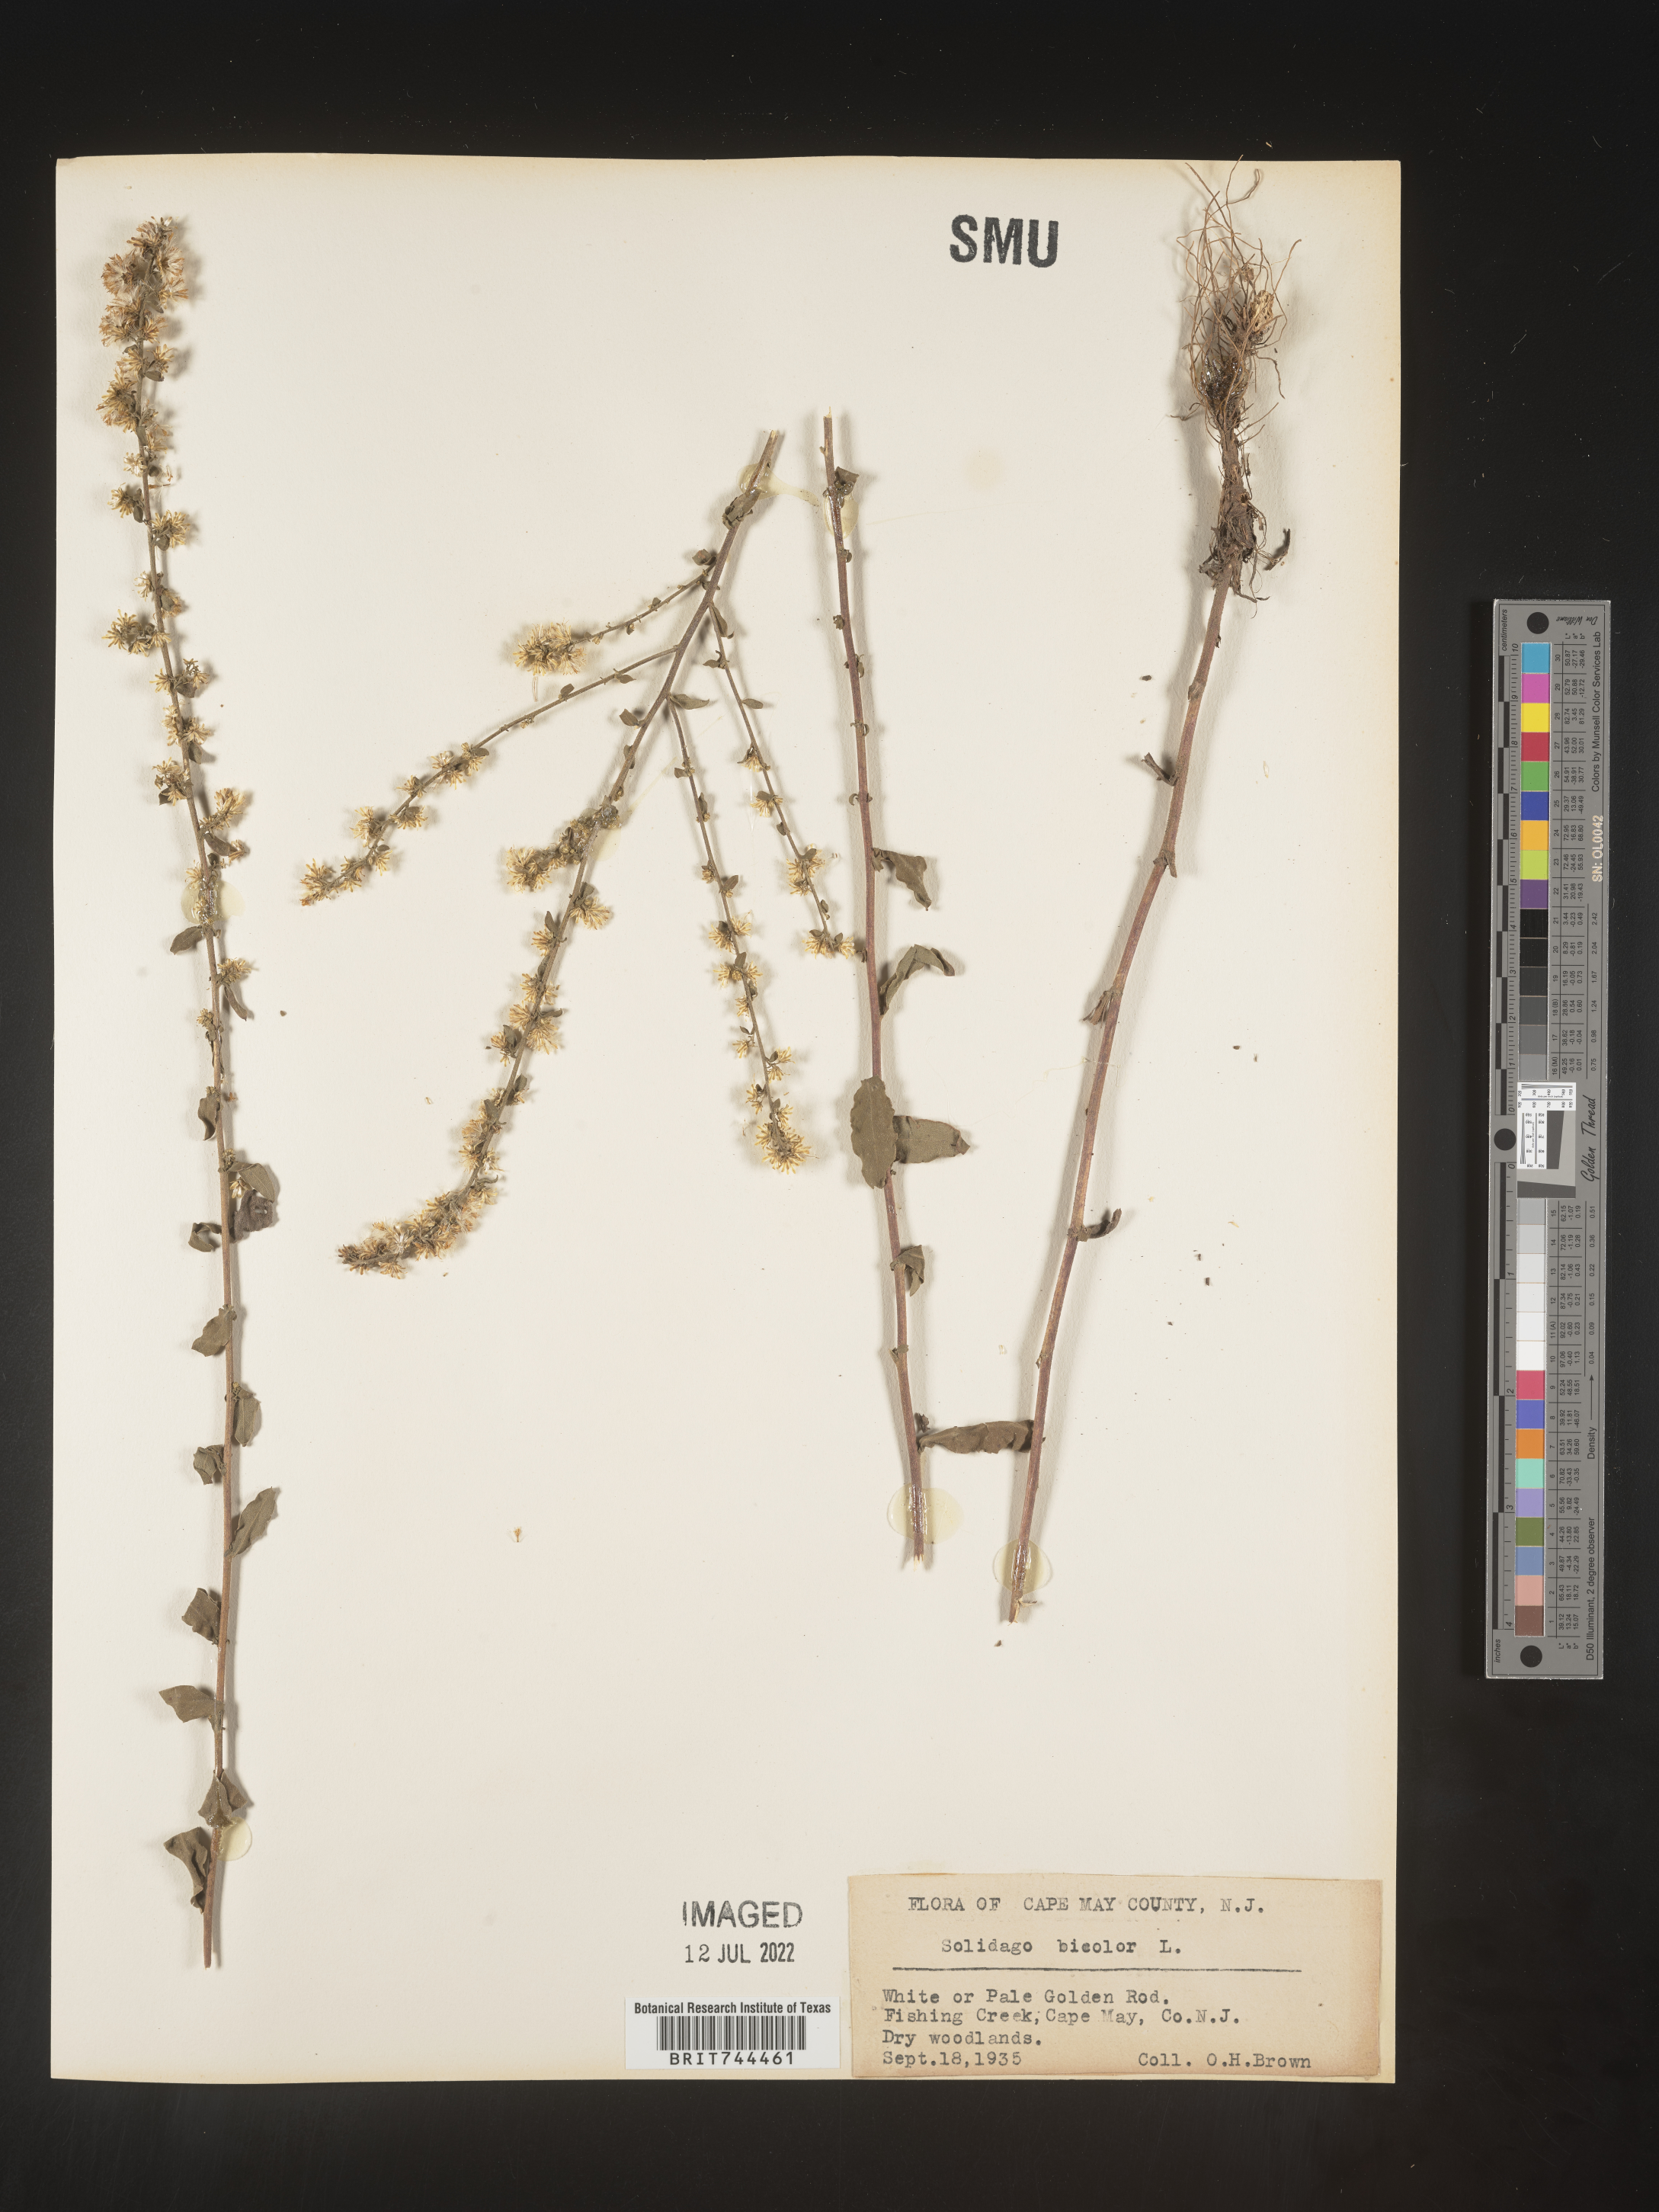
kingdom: Plantae
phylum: Tracheophyta
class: Magnoliopsida
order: Asterales
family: Asteraceae
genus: Solidago
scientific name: Solidago bicolor
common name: Silverrod
